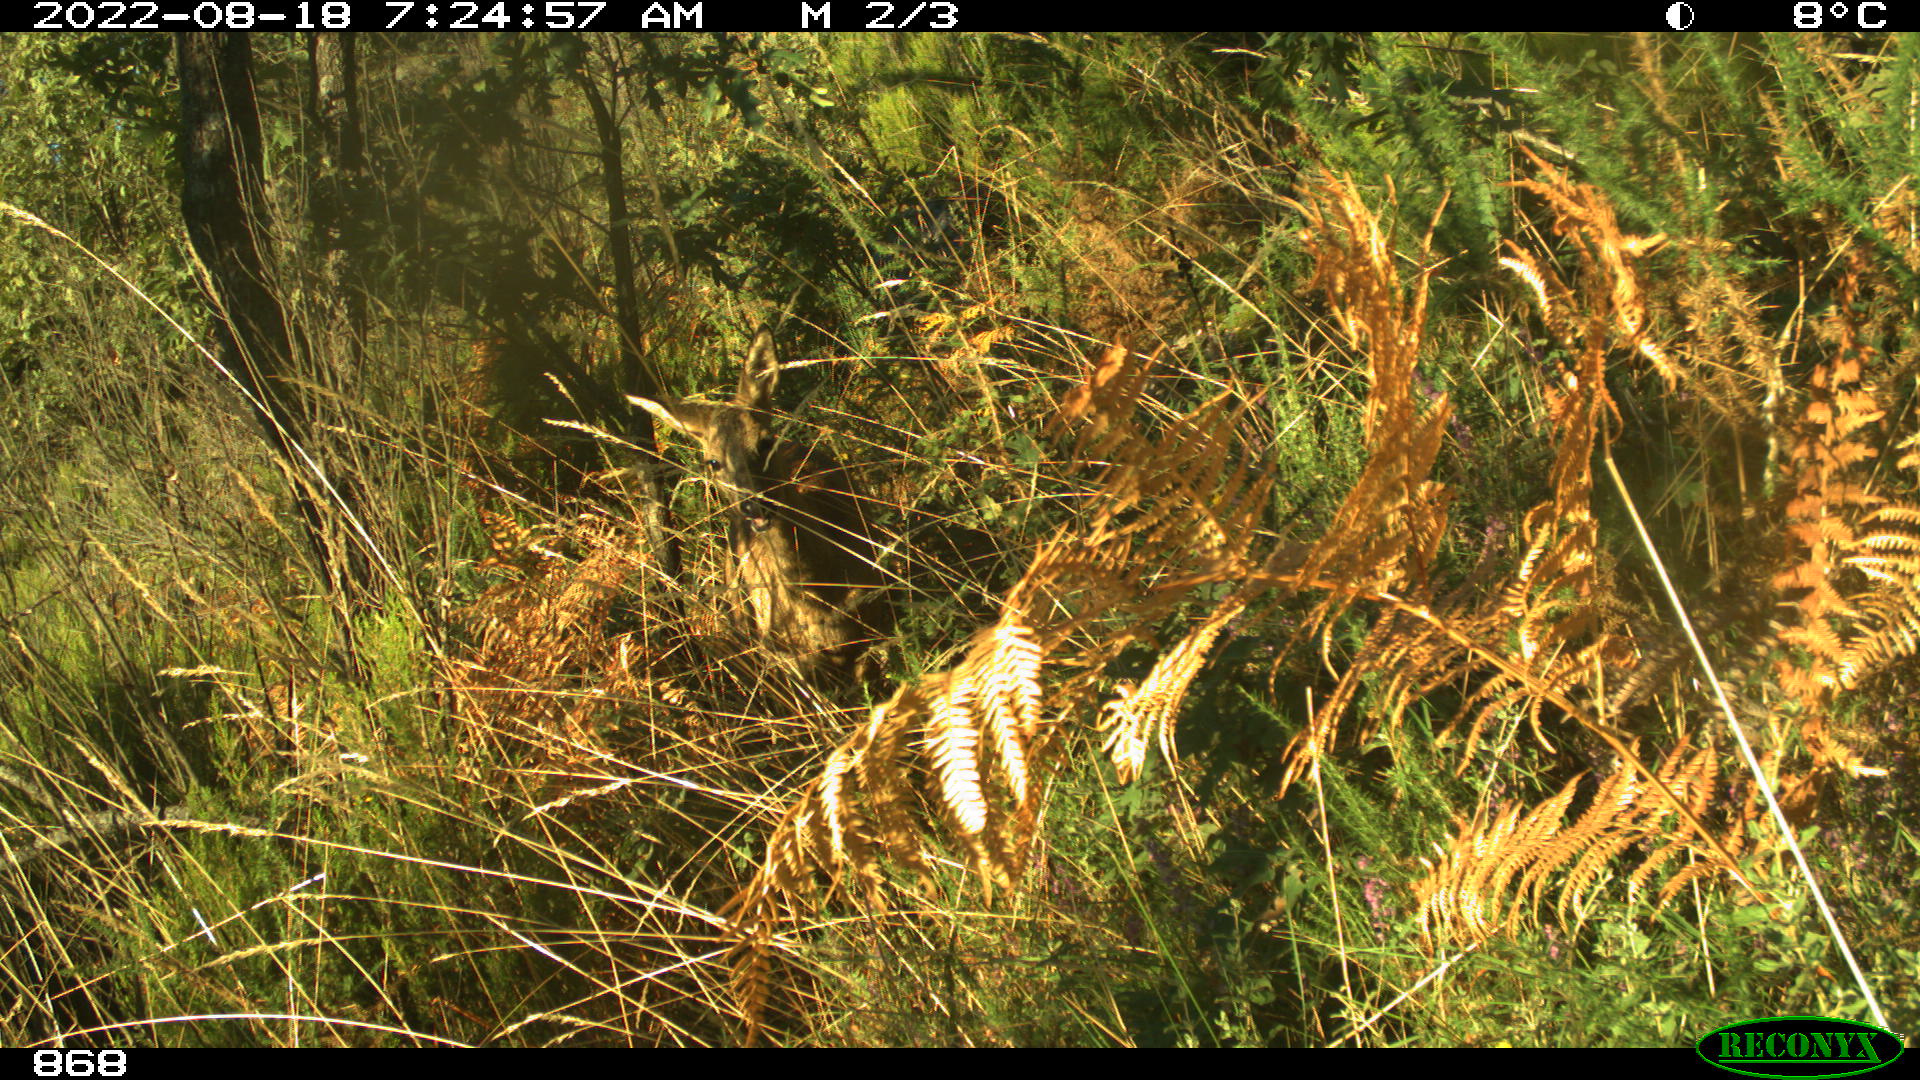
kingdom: Animalia
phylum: Chordata
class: Mammalia
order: Artiodactyla
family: Cervidae
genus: Capreolus
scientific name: Capreolus capreolus
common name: Western roe deer
